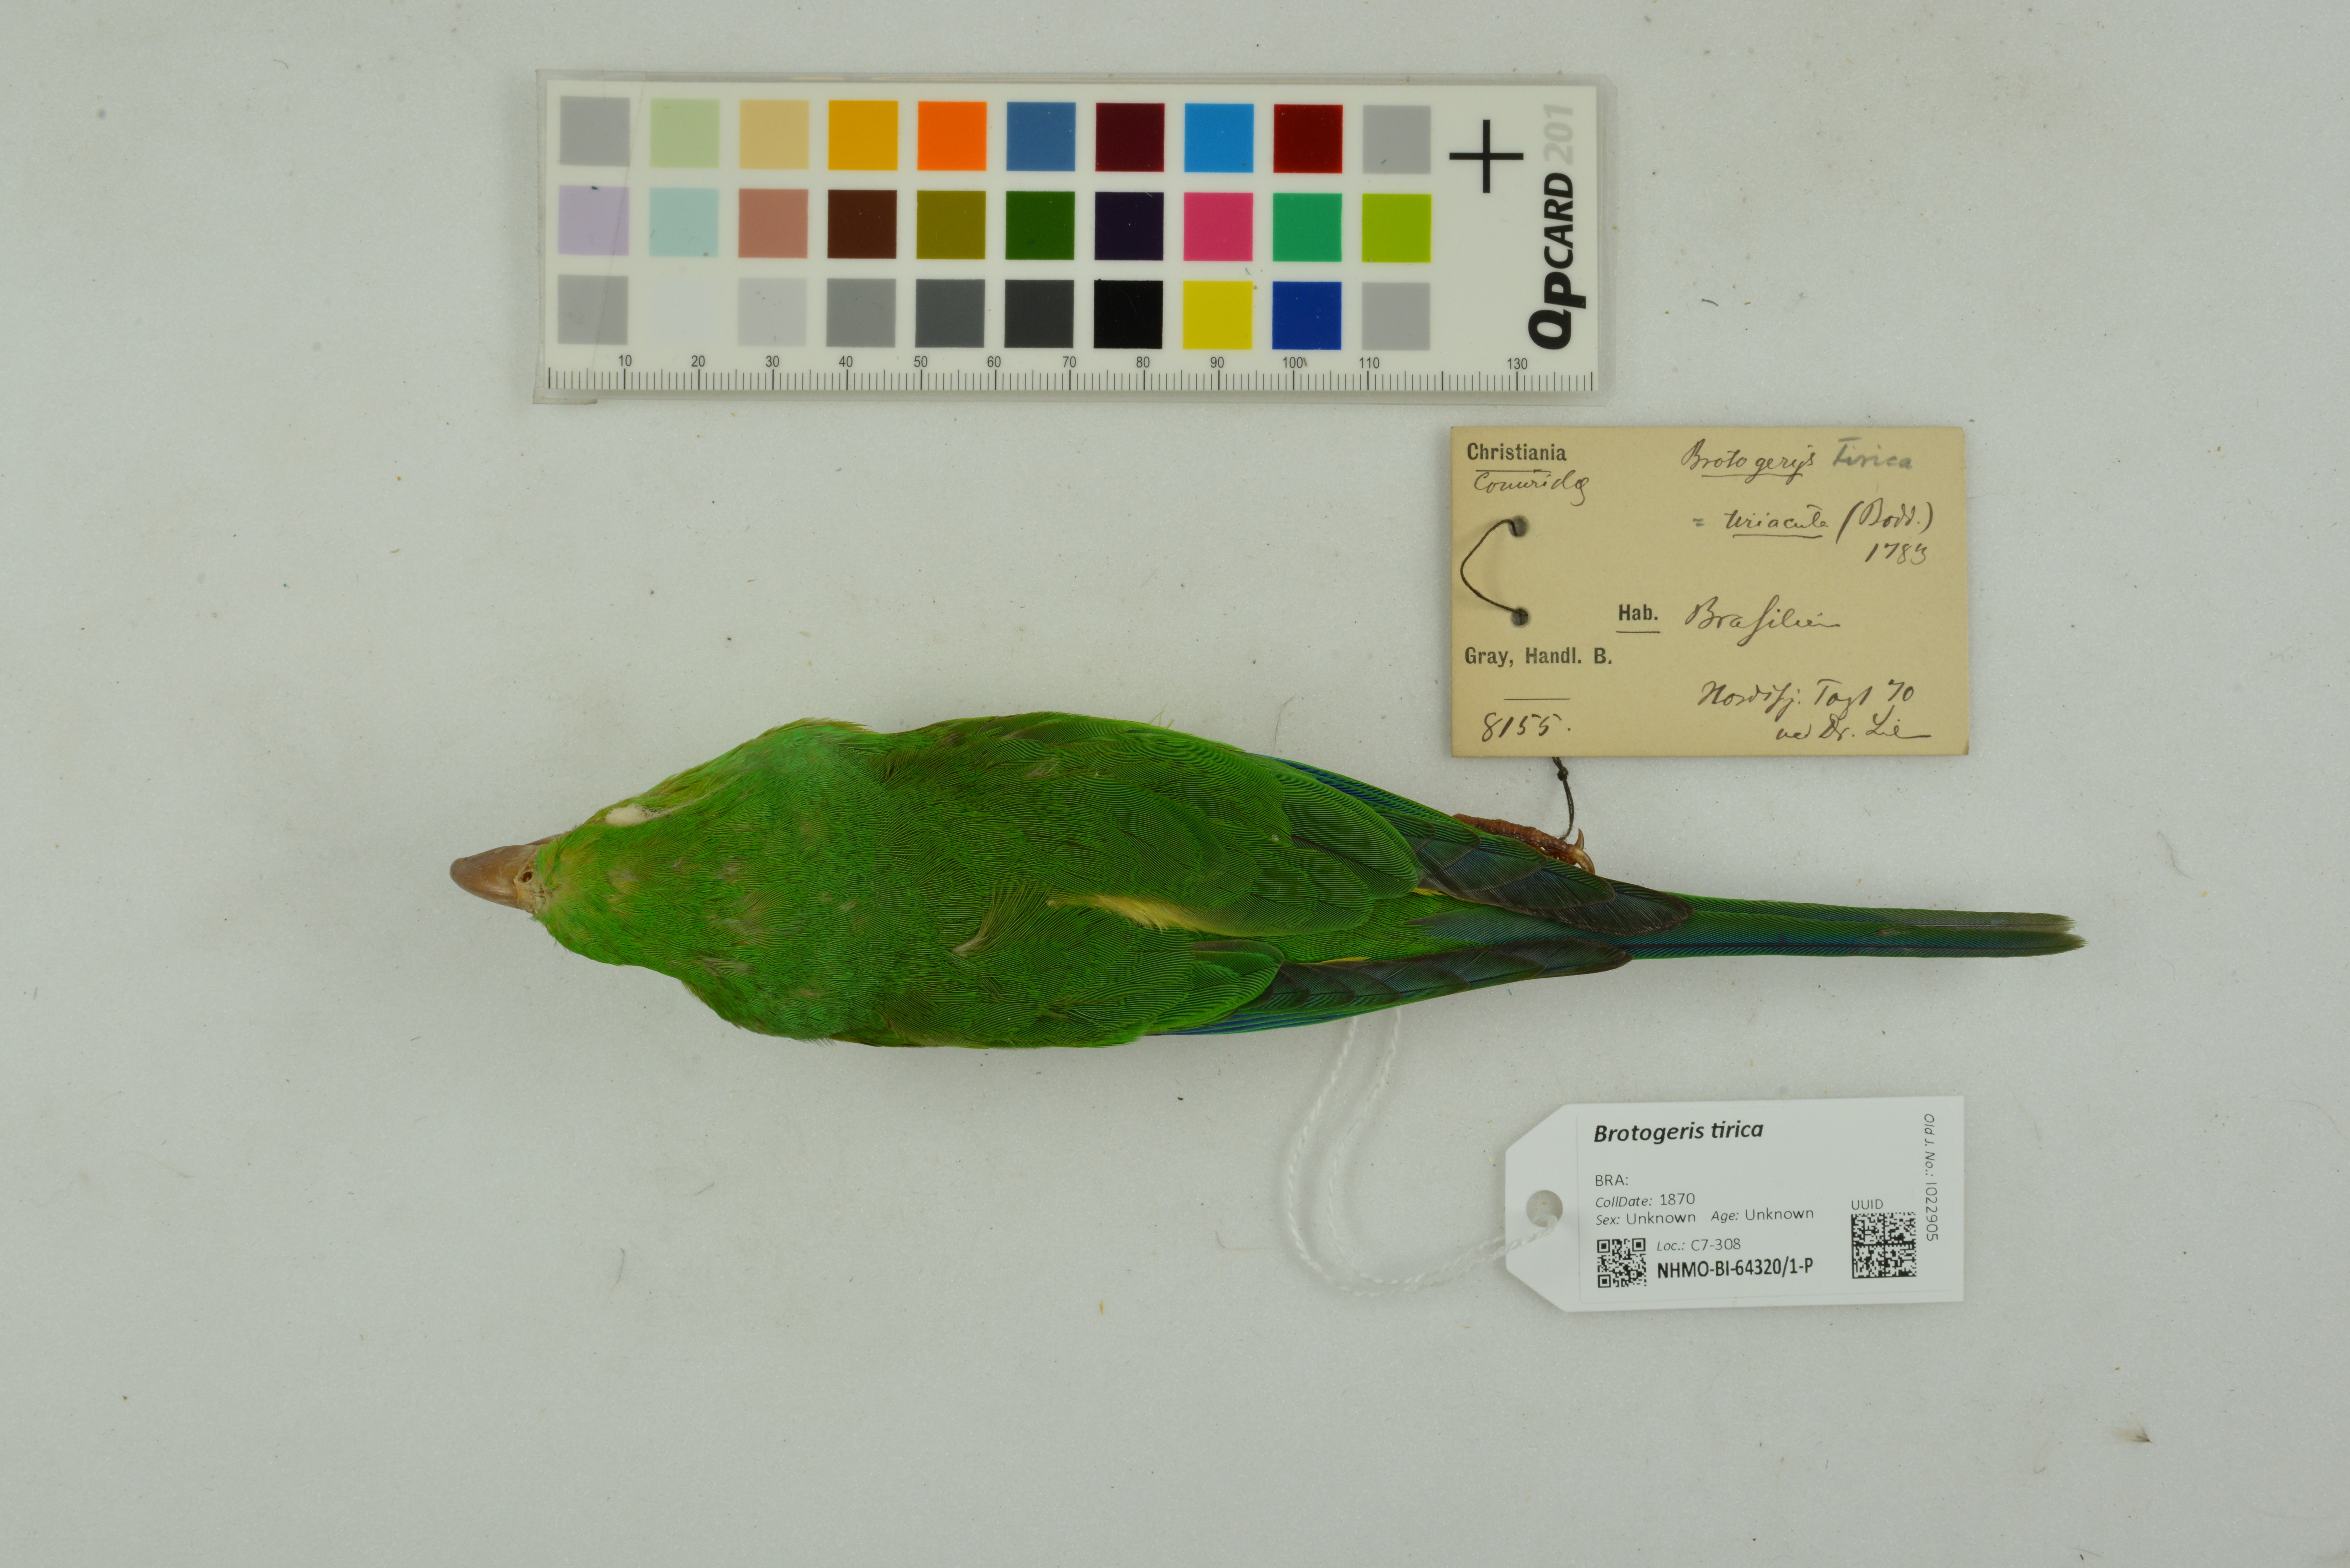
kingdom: Animalia
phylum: Chordata
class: Aves
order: Psittaciformes
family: Psittacidae
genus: Brotogeris
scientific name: Brotogeris tirica
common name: Plain parakeet
